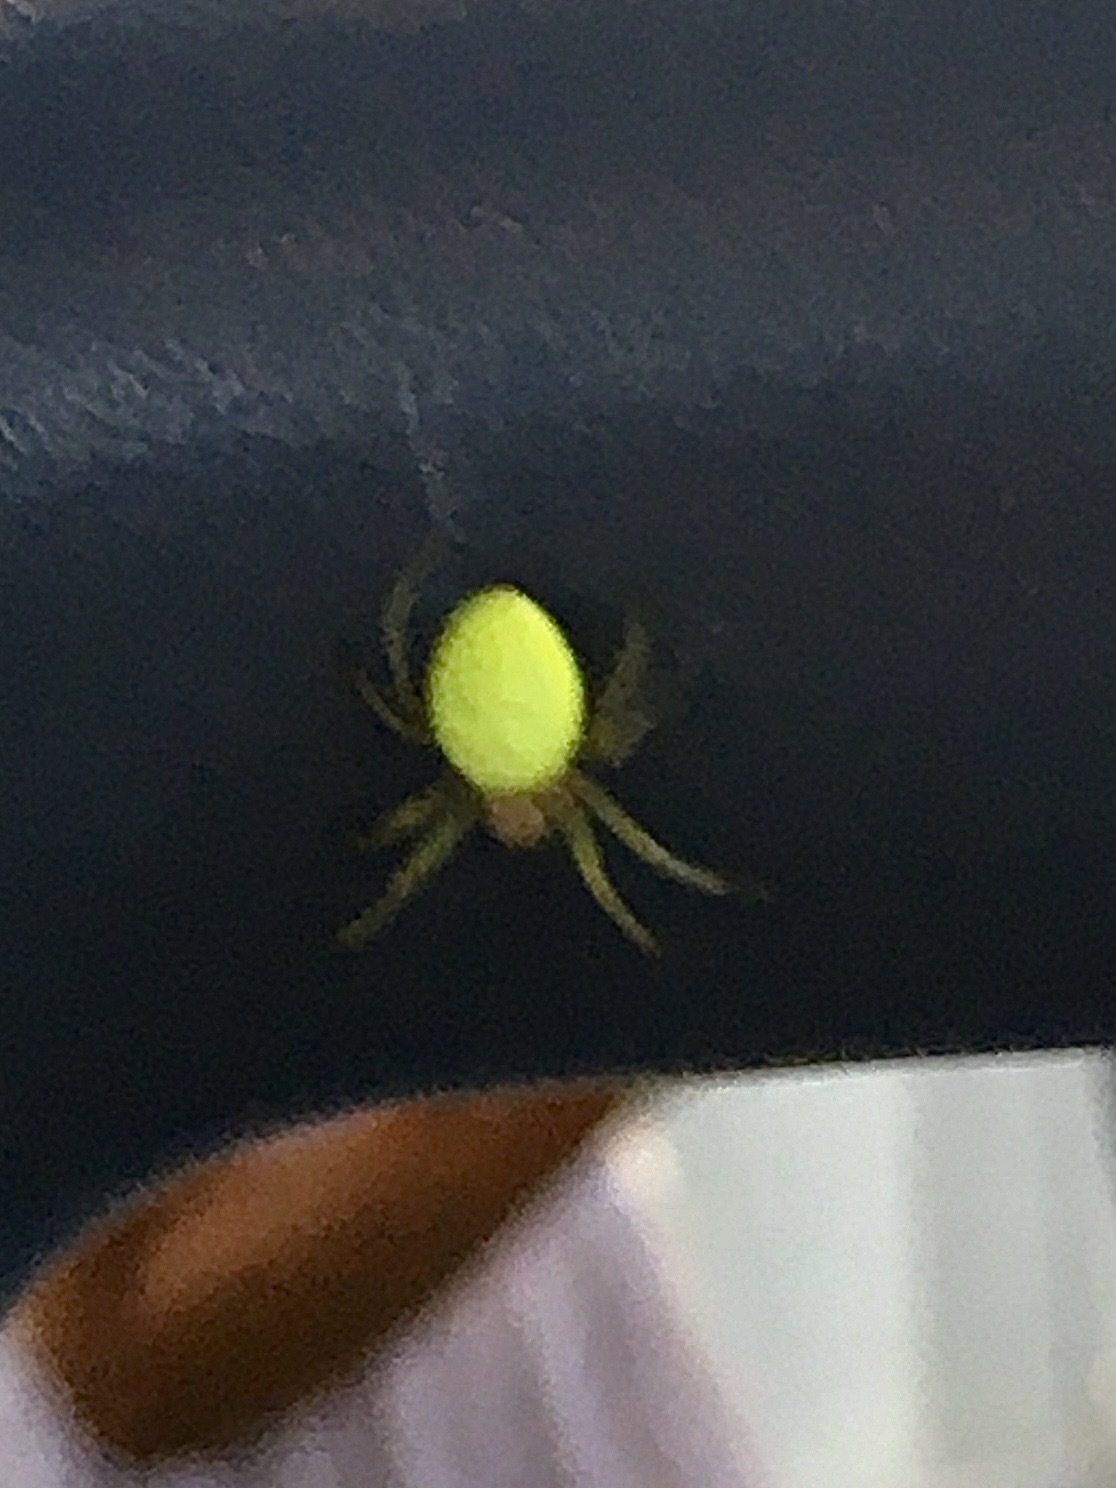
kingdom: Animalia
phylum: Arthropoda
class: Arachnida
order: Araneae
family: Araneidae
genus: Araniella
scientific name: Araniella cucurbitina
